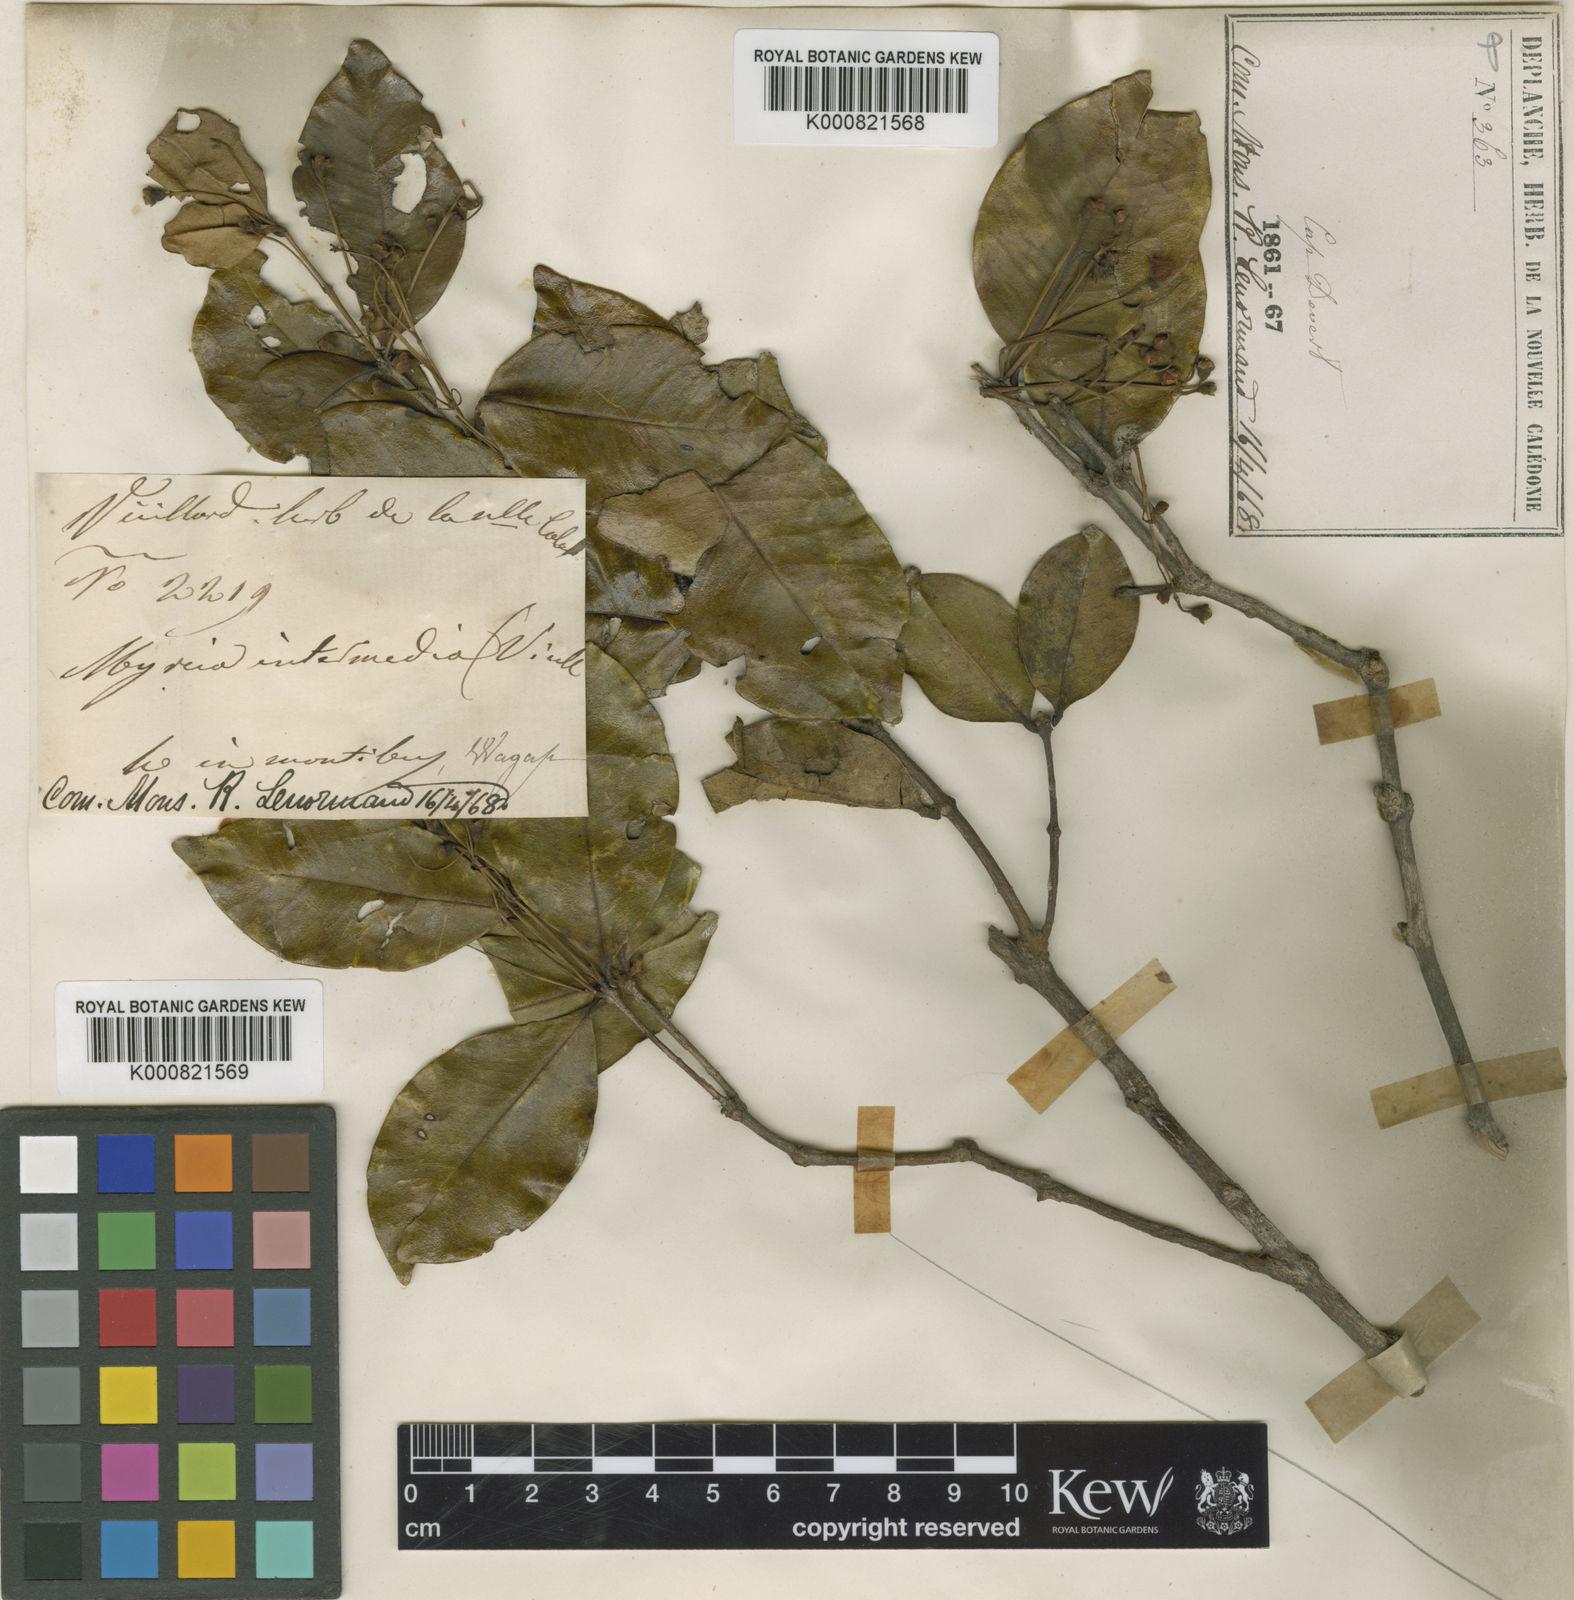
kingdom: Plantae
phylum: Tracheophyta
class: Magnoliopsida
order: Myrtales
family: Myrtaceae
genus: Eugenia
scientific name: Eugenia intermedia
